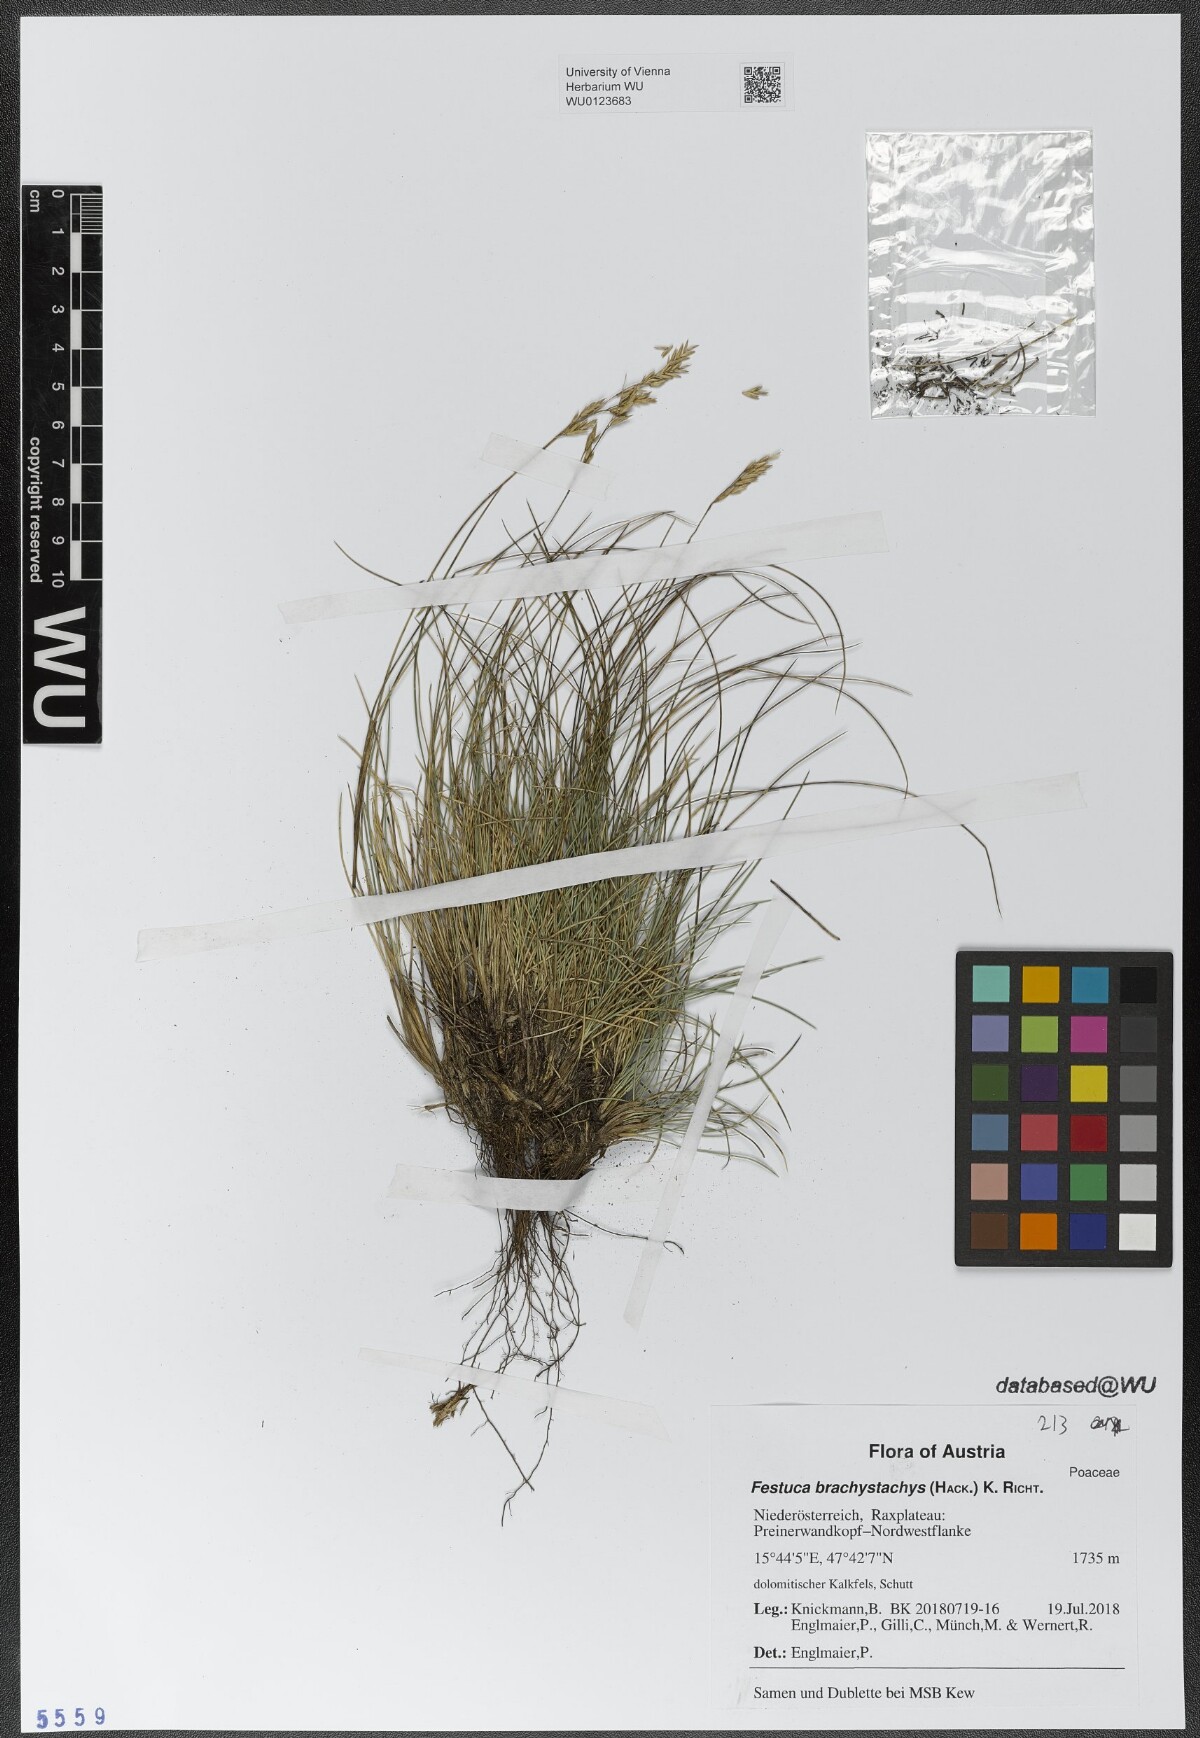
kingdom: Plantae
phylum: Tracheophyta
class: Liliopsida
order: Poales
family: Poaceae
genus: Festuca
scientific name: Festuca varia
